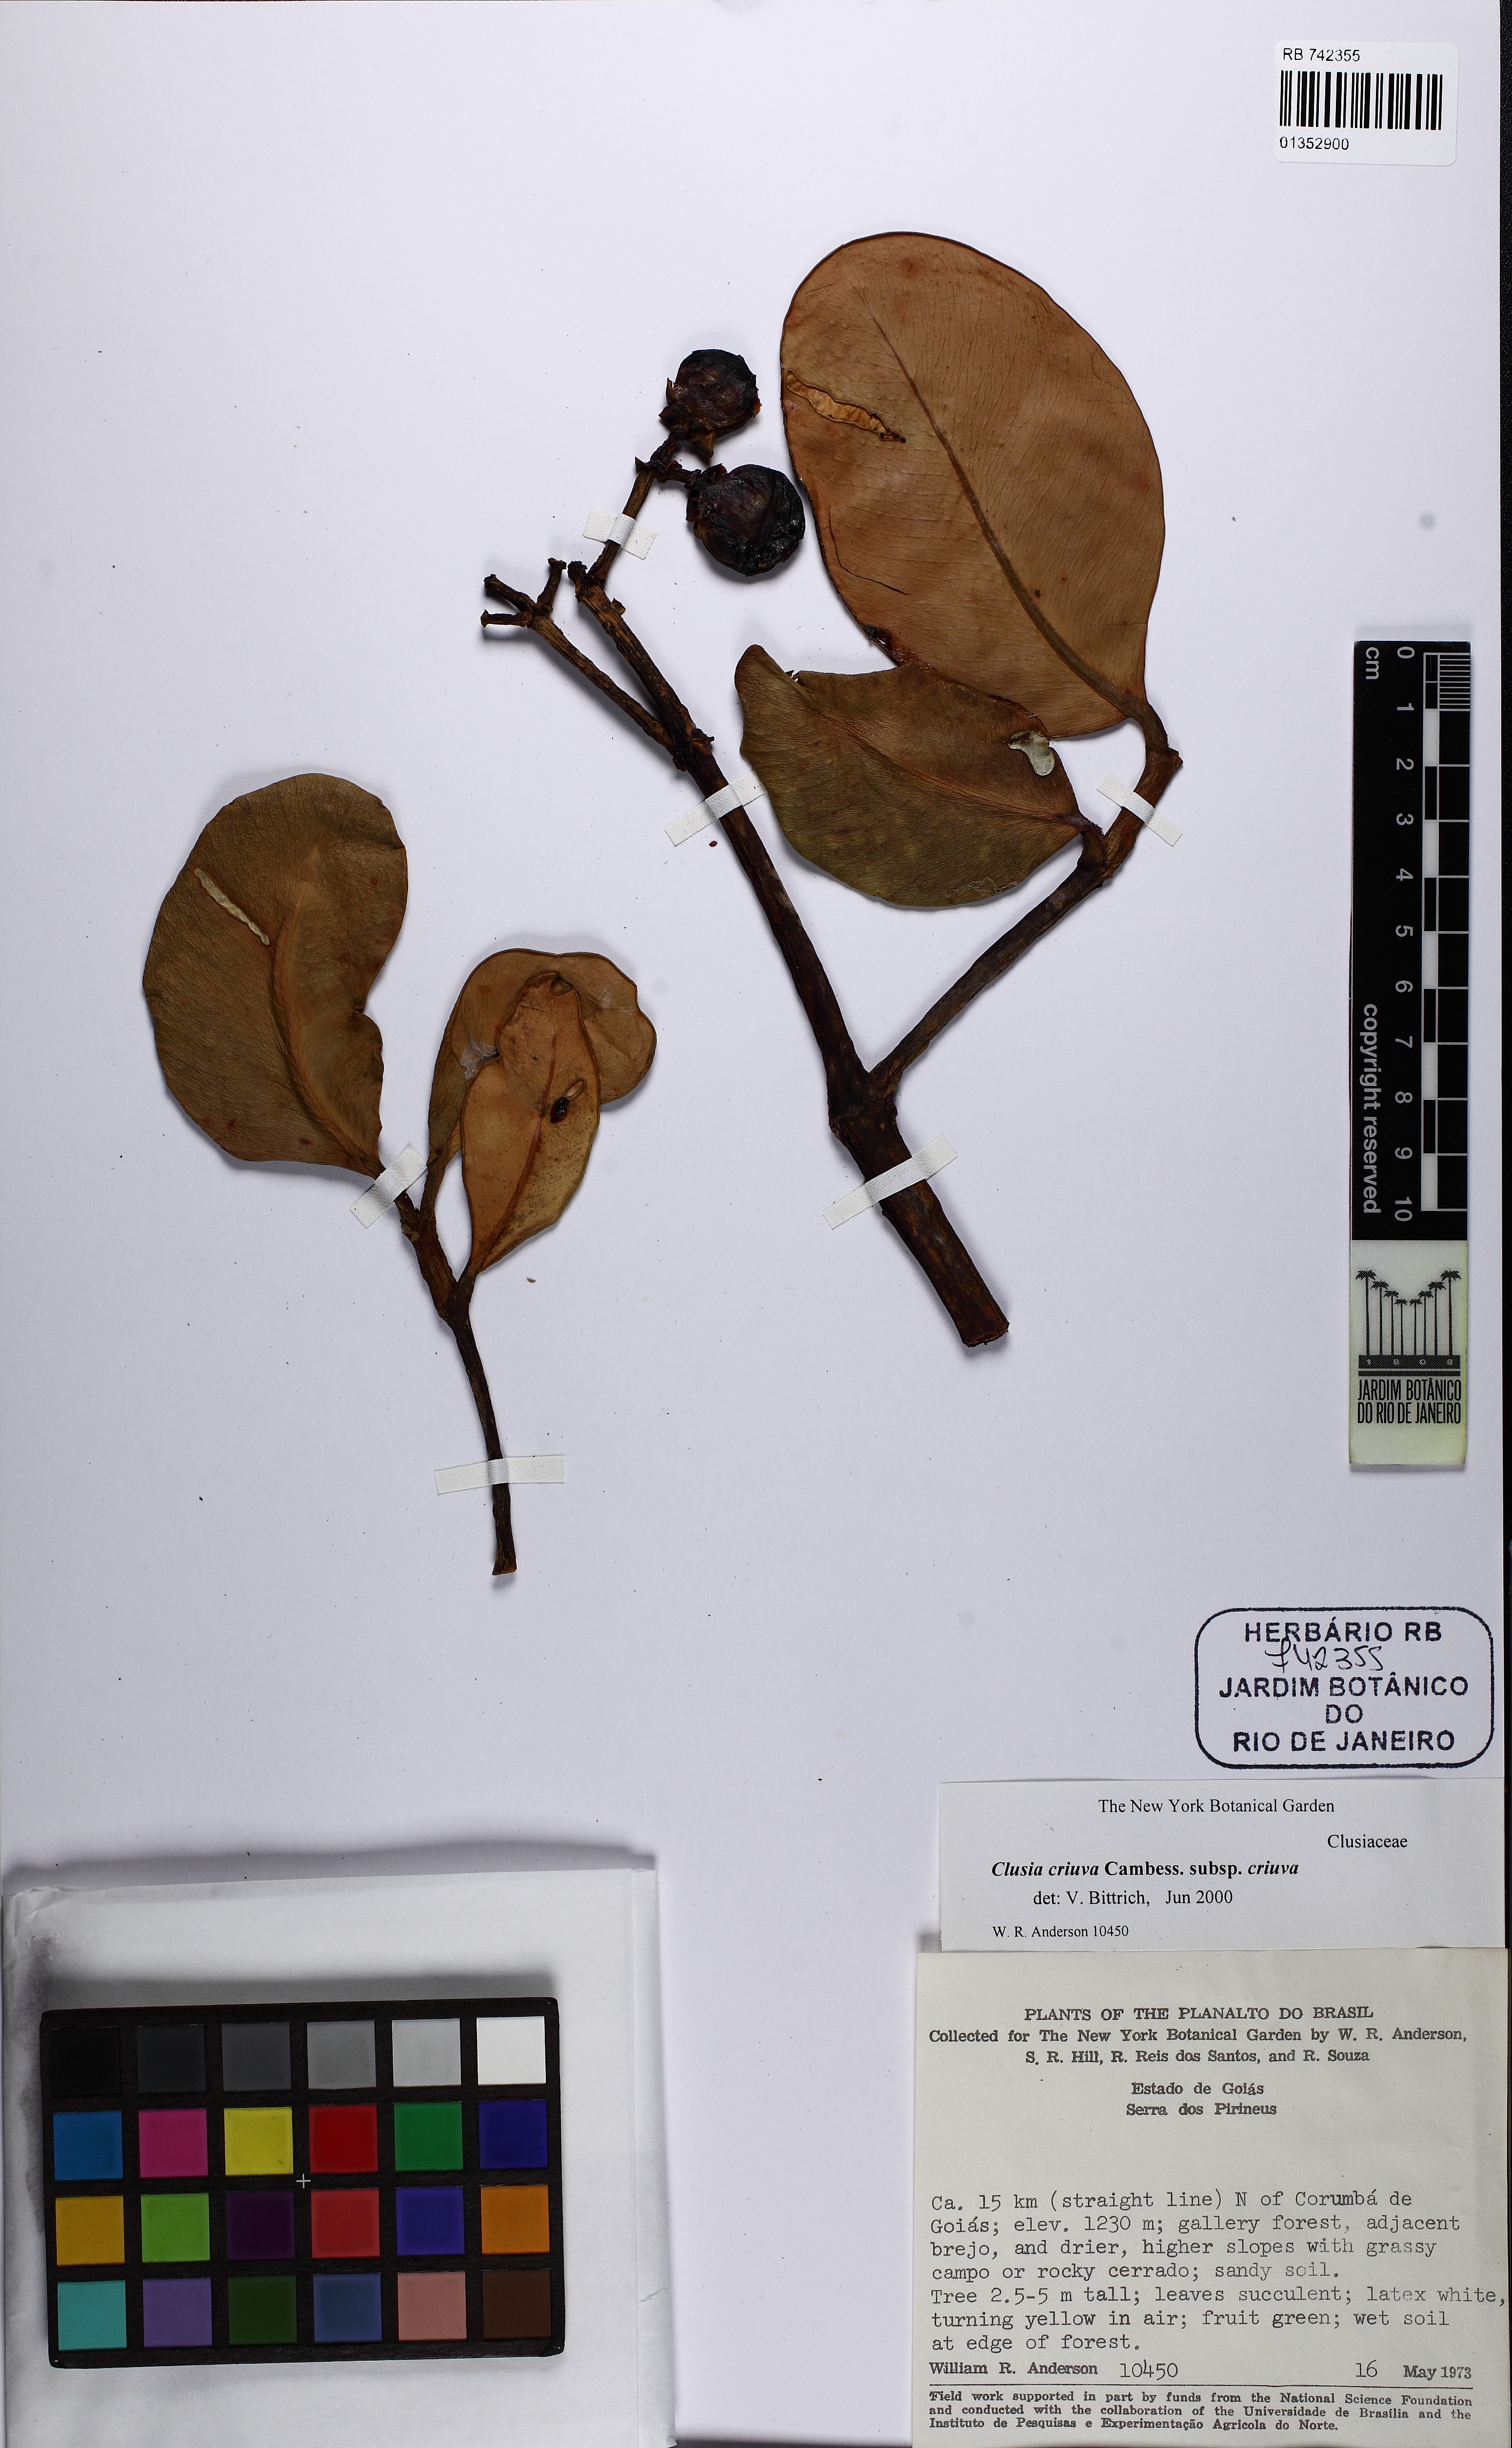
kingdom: Plantae
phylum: Tracheophyta
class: Magnoliopsida
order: Malpighiales
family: Clusiaceae
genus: Clusia
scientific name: Clusia criuva
